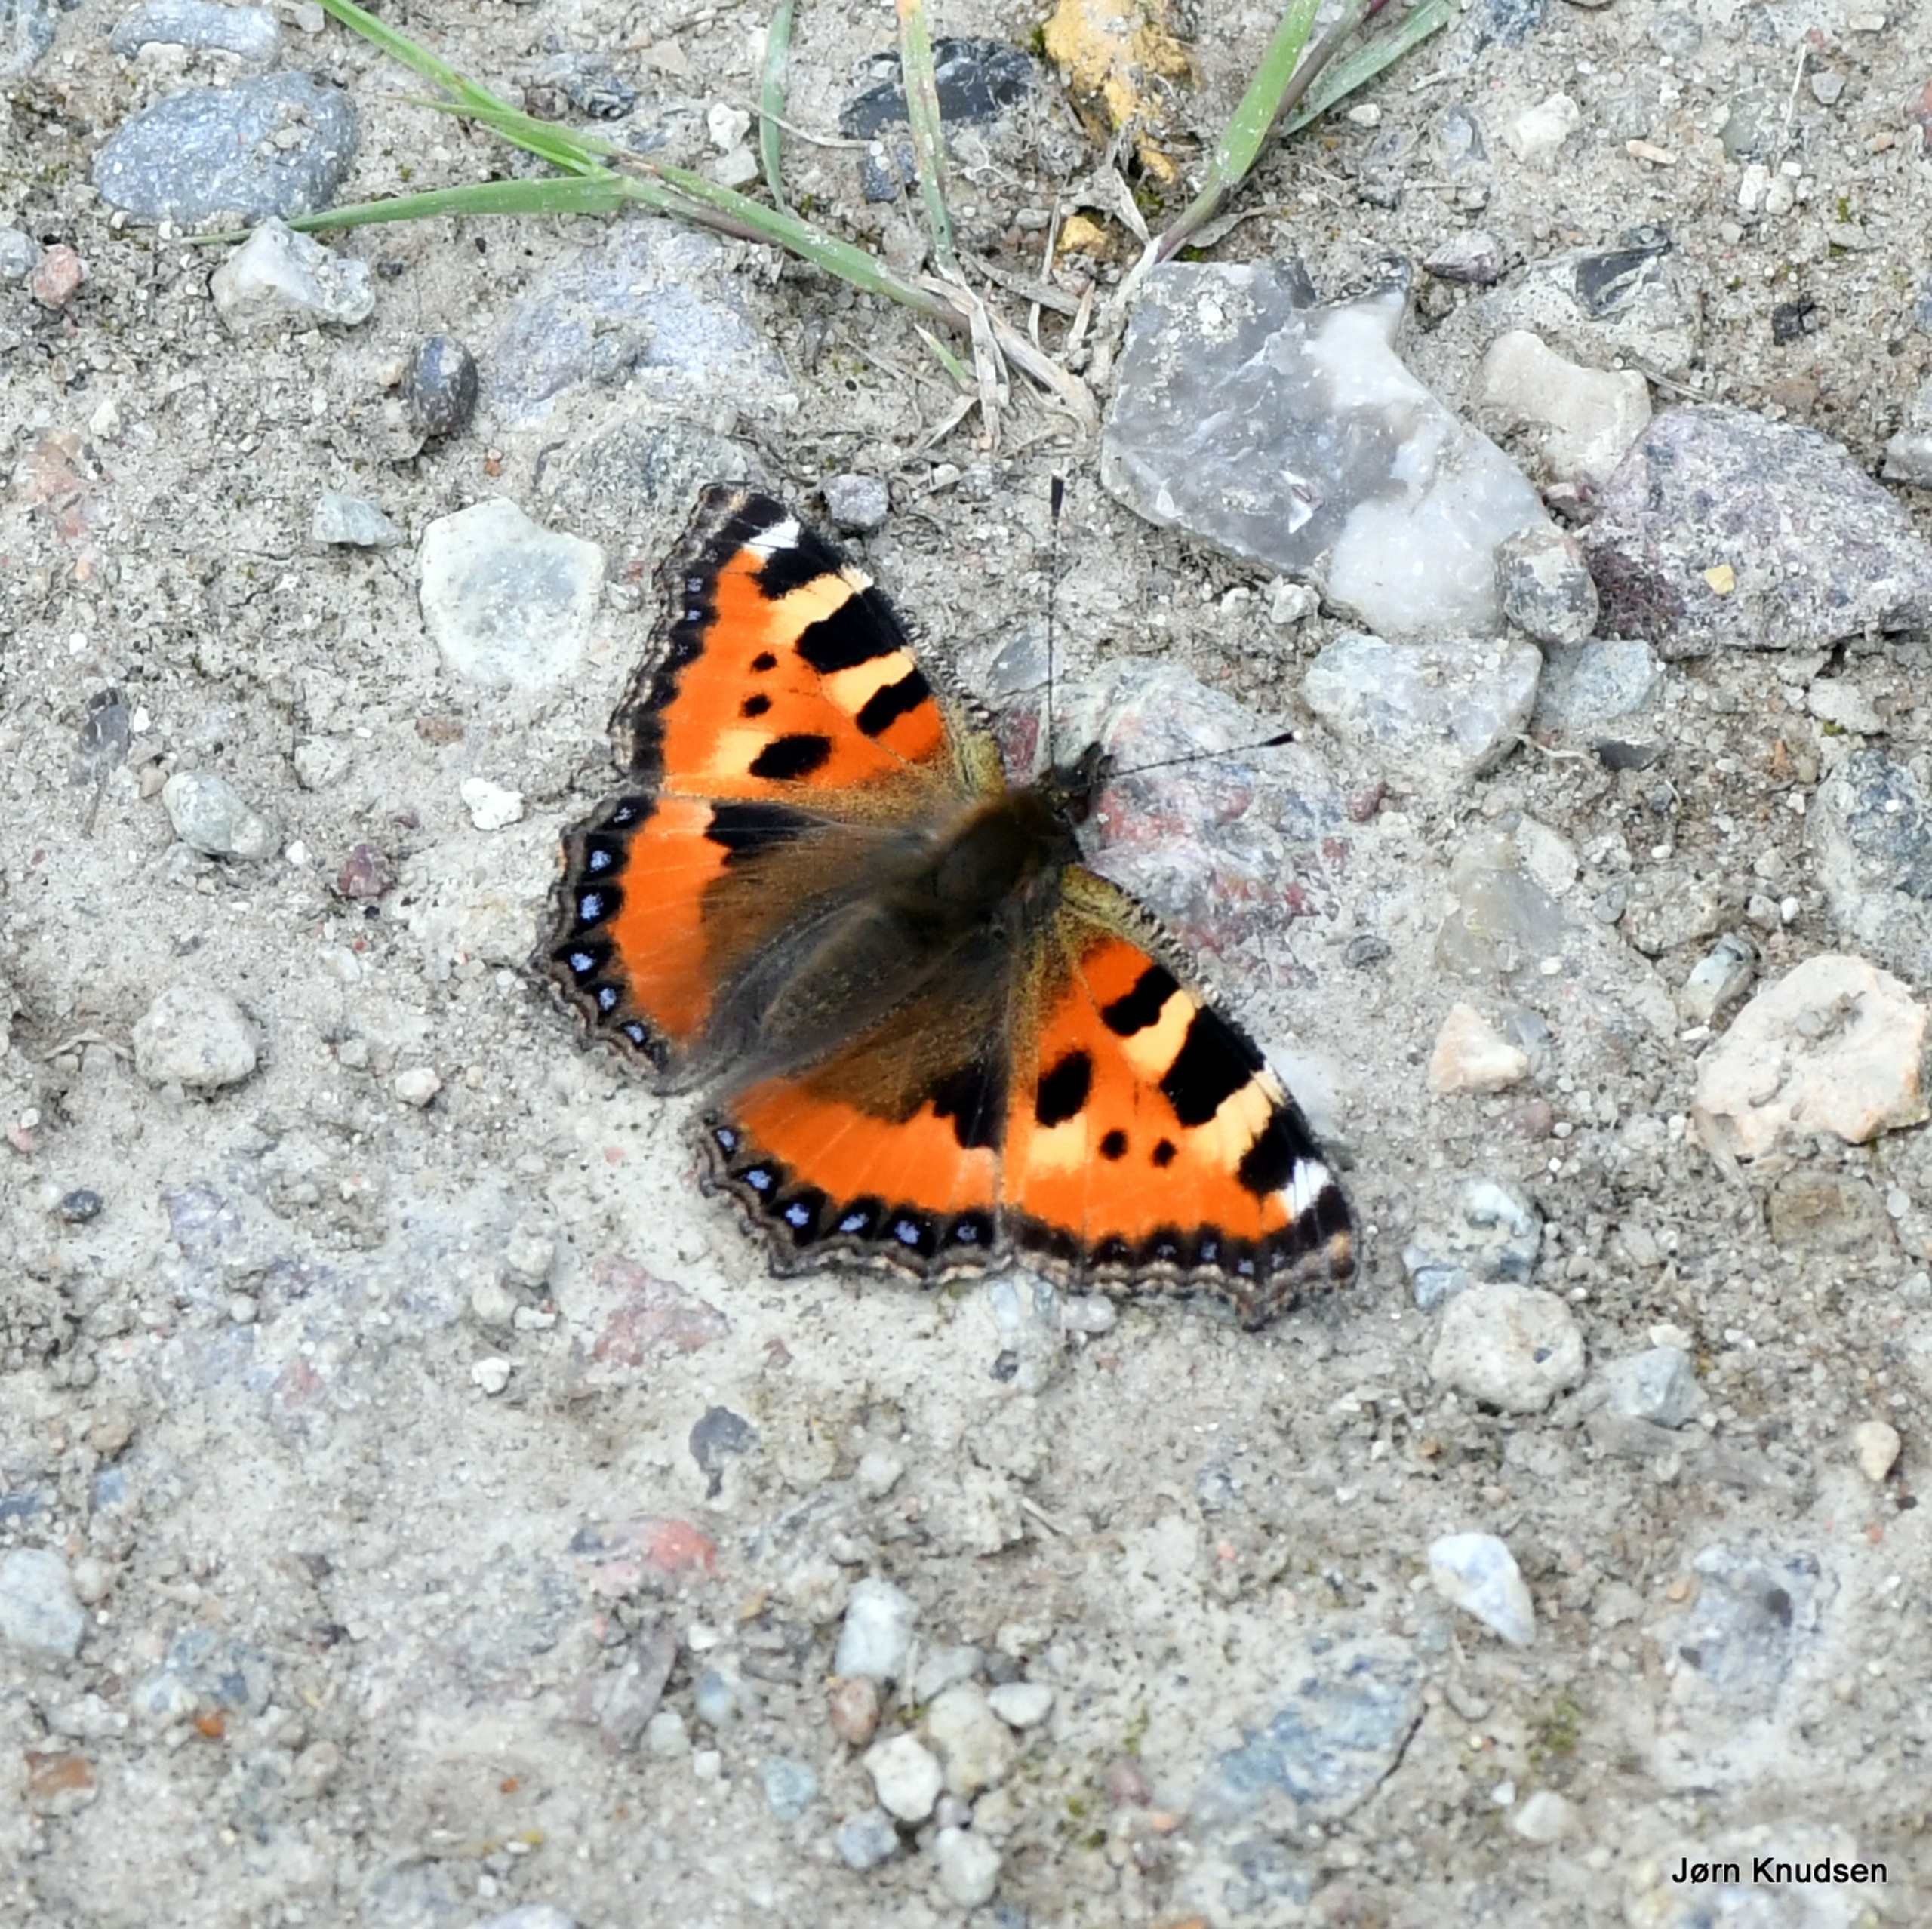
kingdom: Animalia
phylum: Arthropoda
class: Insecta
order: Lepidoptera
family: Nymphalidae
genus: Aglais
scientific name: Aglais urticae
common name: Nældens takvinge
